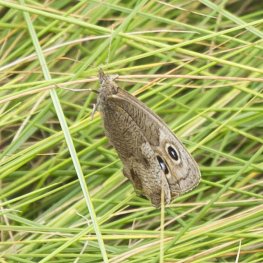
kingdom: Animalia
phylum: Arthropoda
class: Insecta
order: Lepidoptera
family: Nymphalidae
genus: Cercyonis
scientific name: Cercyonis pegala
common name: Common Wood-Nymph
